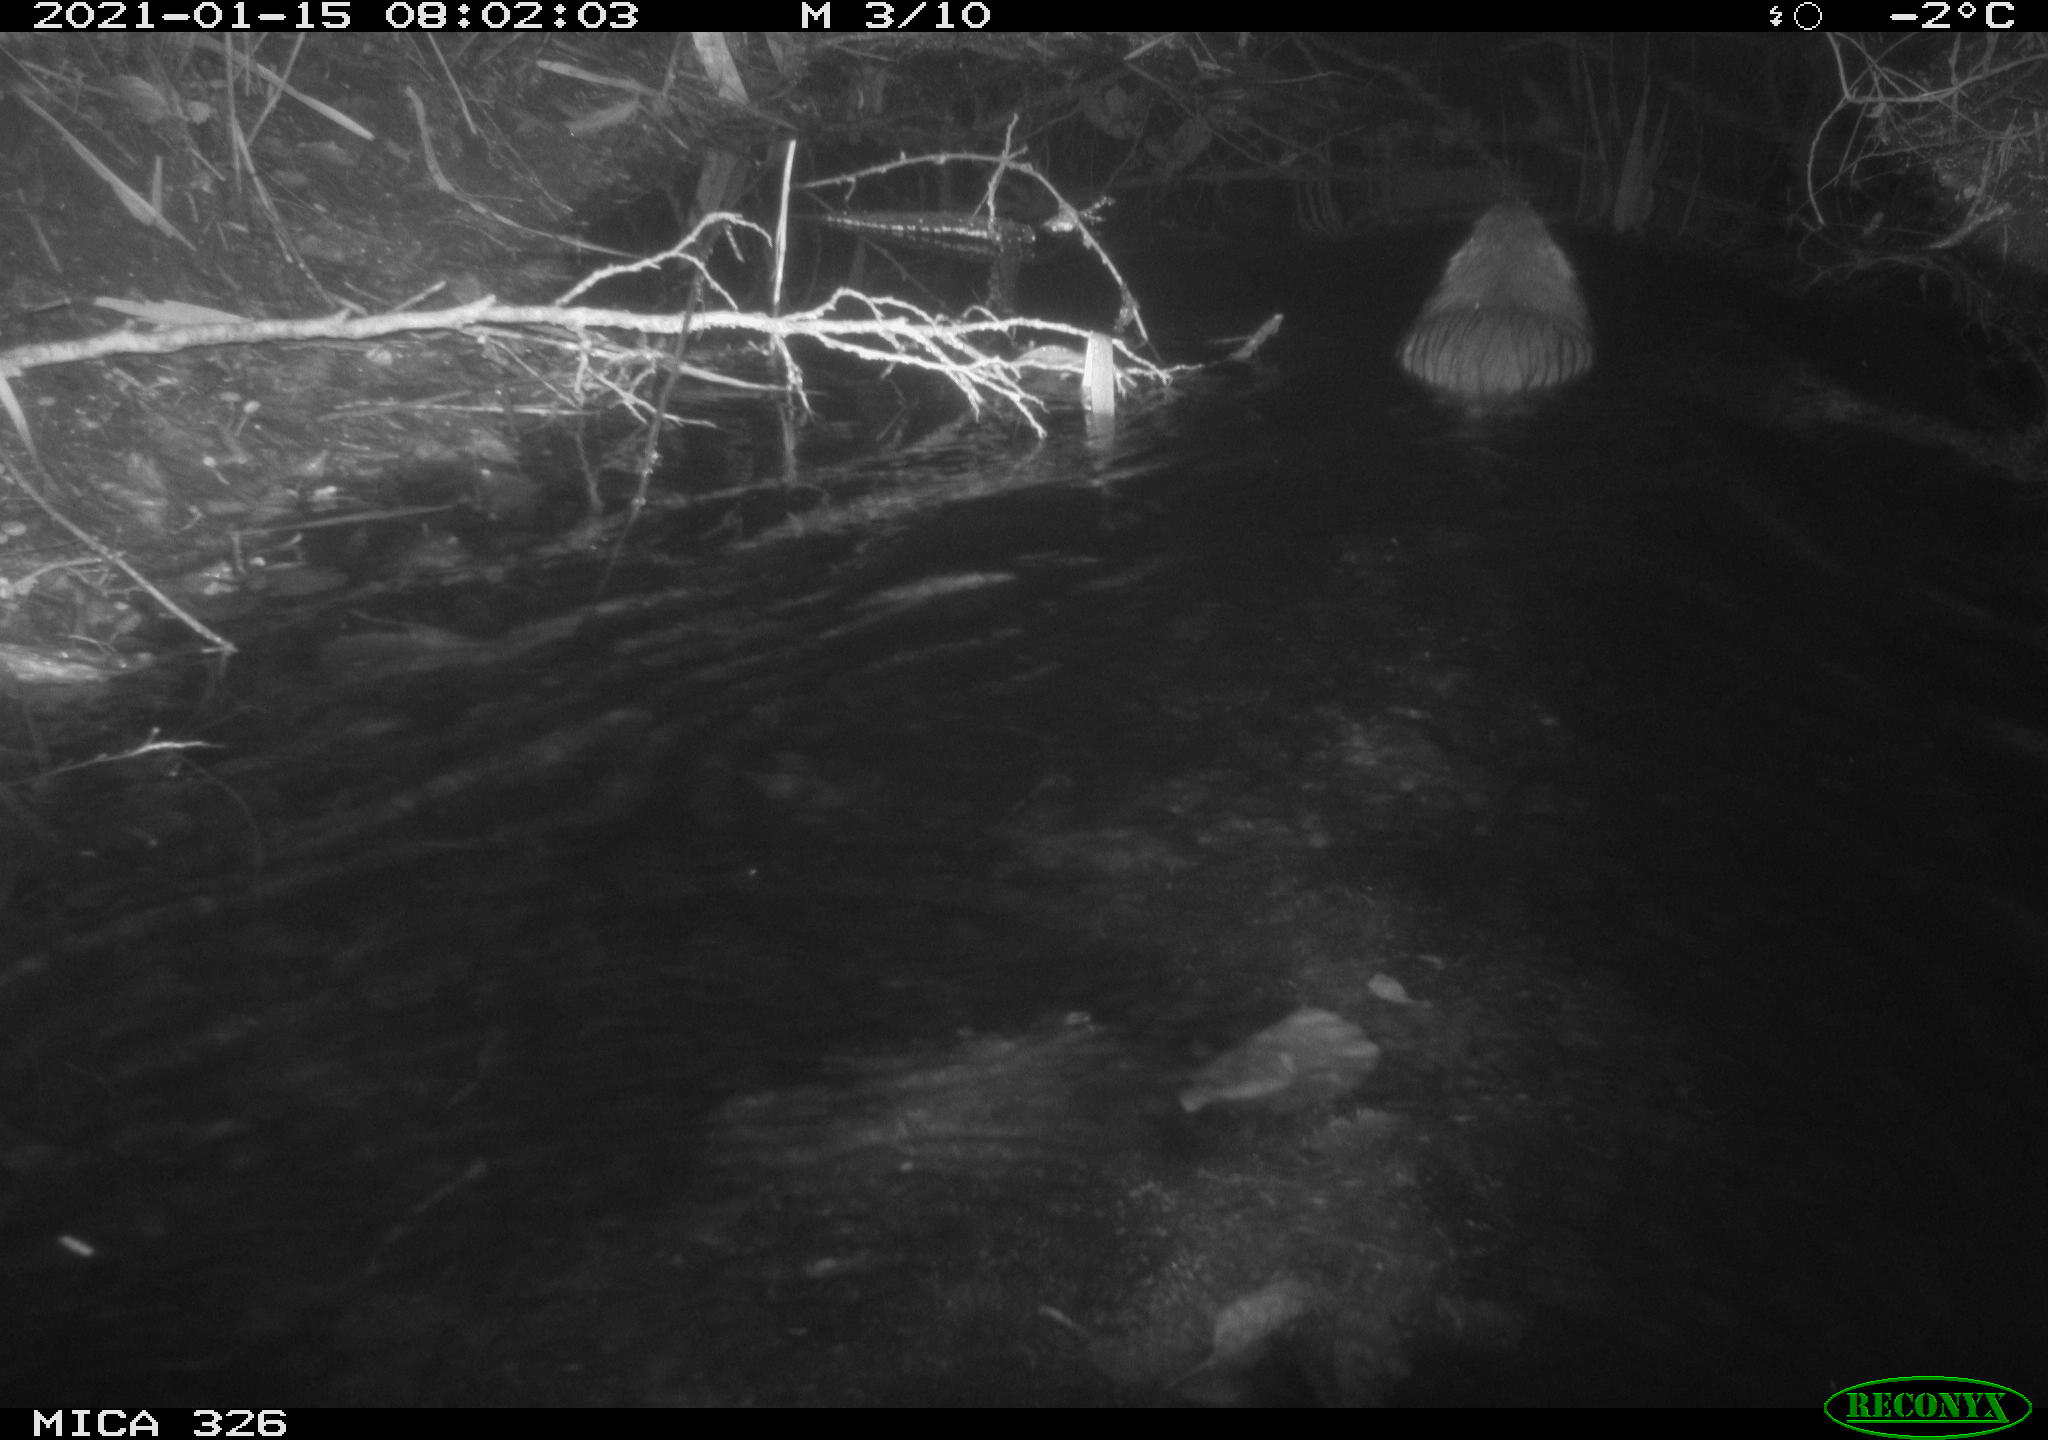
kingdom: Animalia
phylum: Chordata
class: Mammalia
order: Rodentia
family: Myocastoridae
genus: Myocastor
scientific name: Myocastor coypus
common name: Coypu
